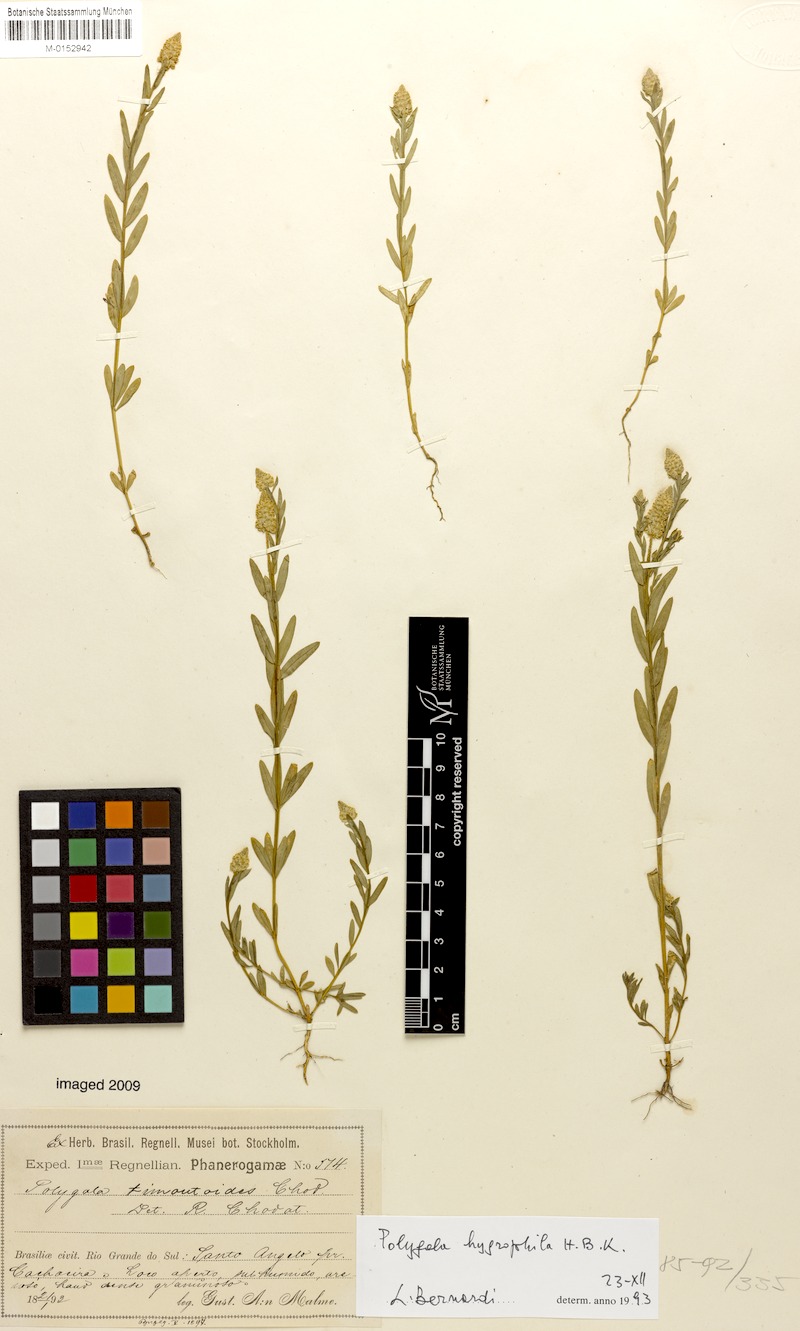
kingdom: Plantae
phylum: Tracheophyta
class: Magnoliopsida
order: Fabales
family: Polygalaceae
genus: Polygala
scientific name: Polygala hygrophila
